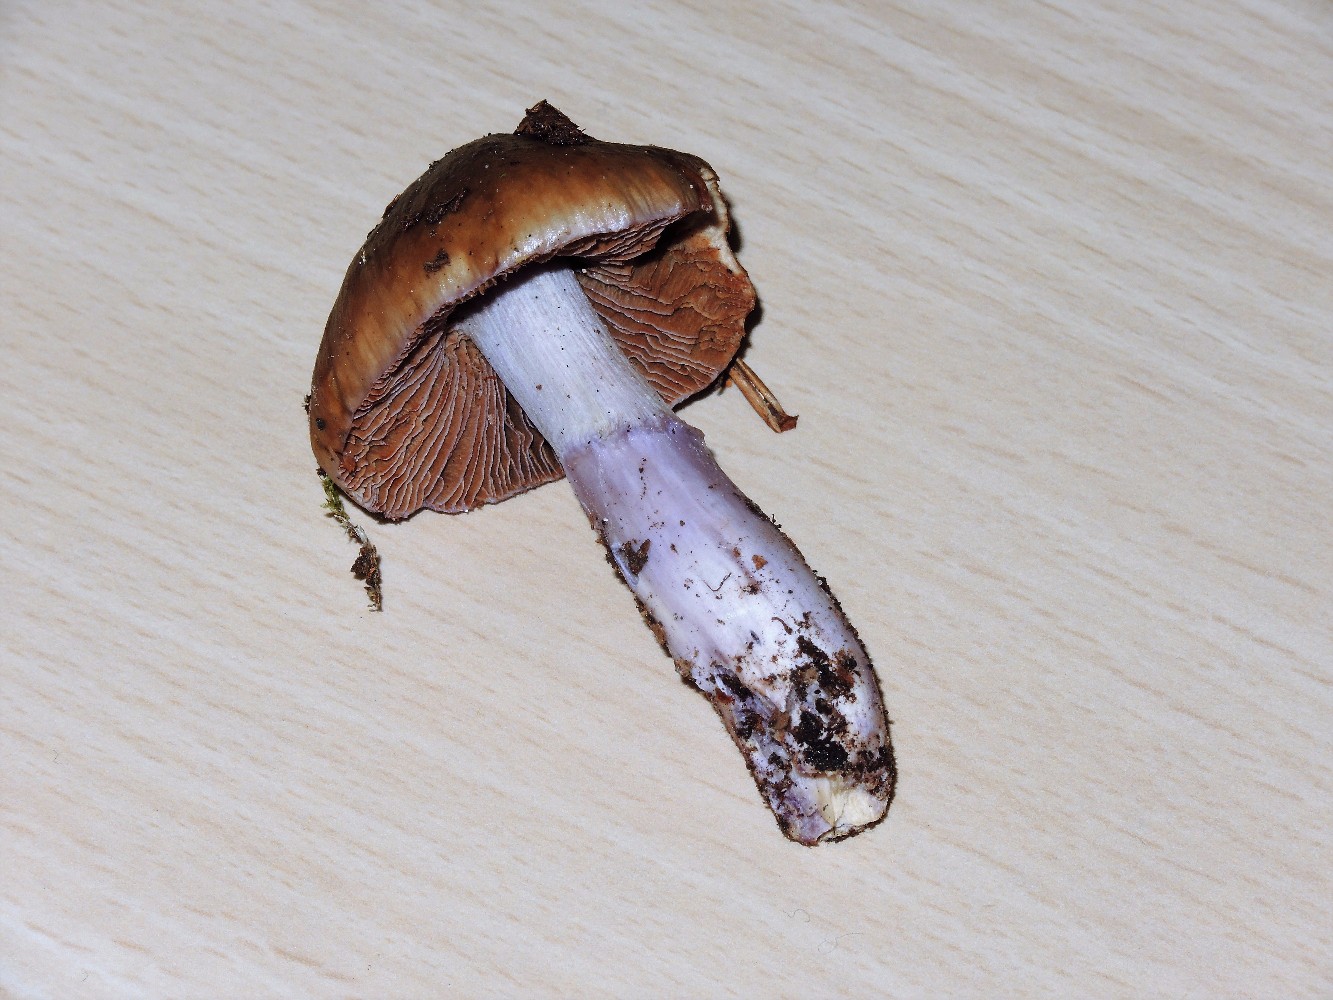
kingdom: Fungi
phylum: Basidiomycota
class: Agaricomycetes
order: Agaricales
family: Cortinariaceae
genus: Cortinarius
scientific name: Cortinarius elatior
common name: høj slørhat
